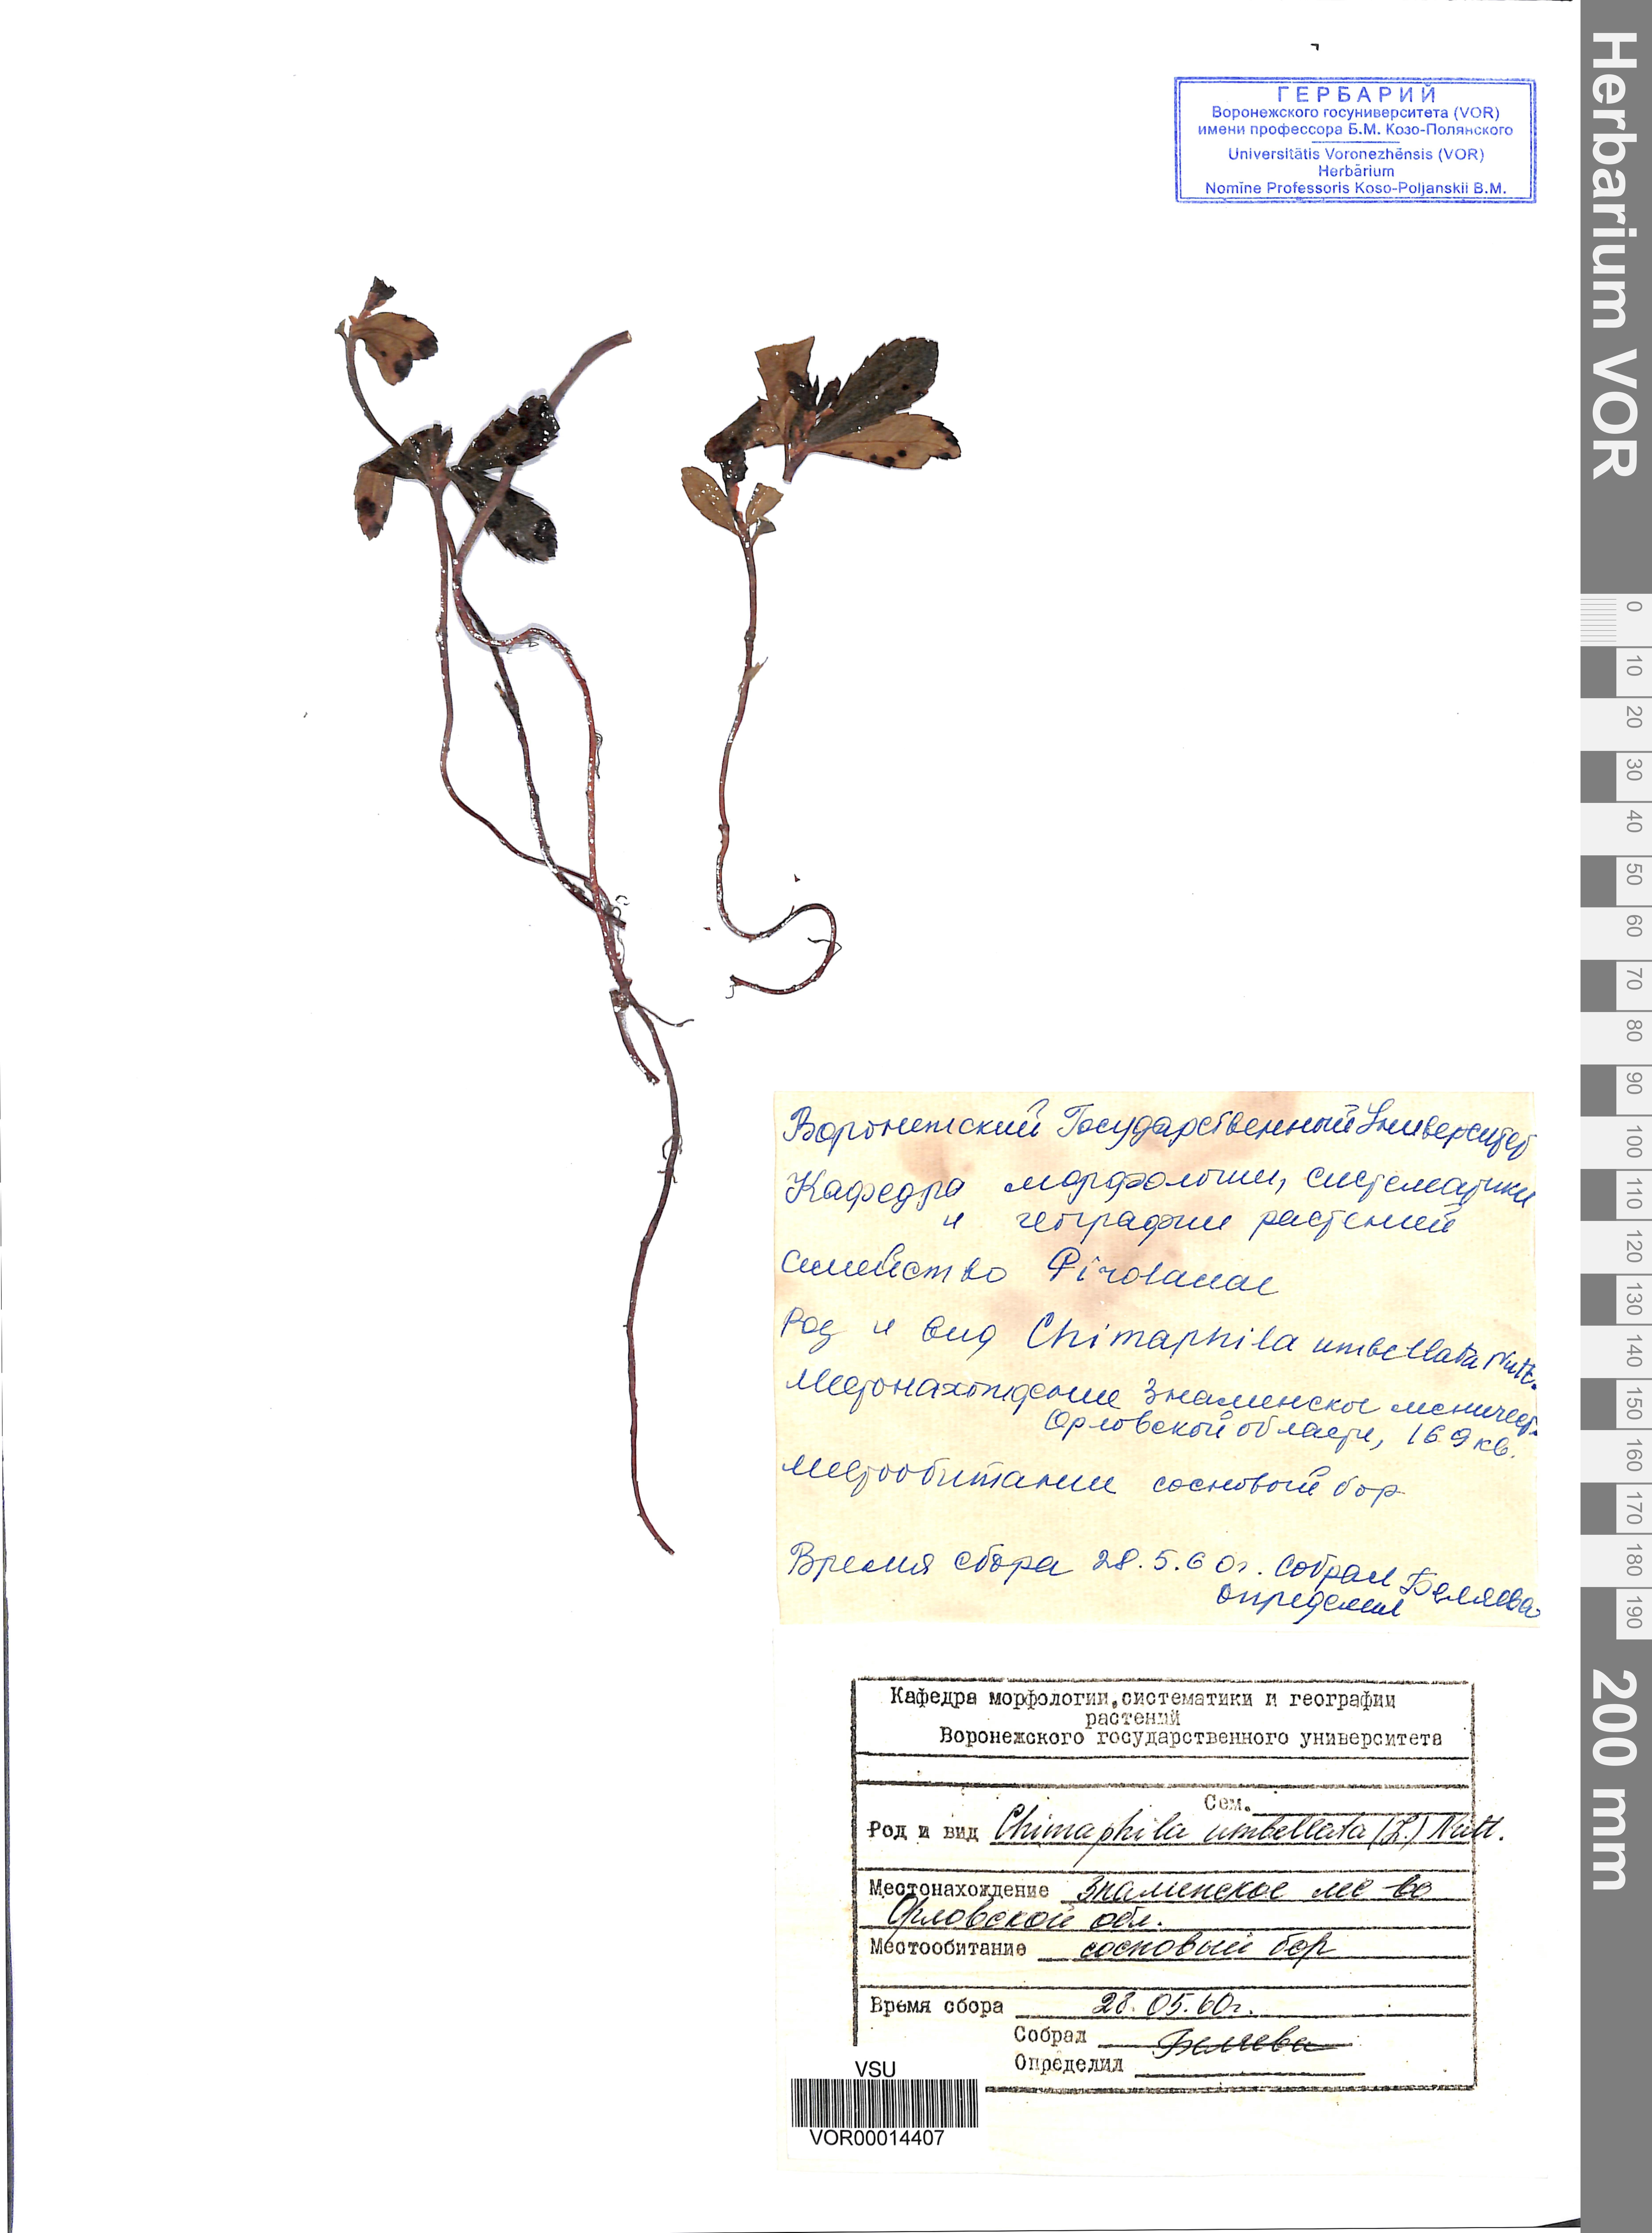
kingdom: Plantae
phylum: Tracheophyta
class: Magnoliopsida
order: Ericales
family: Ericaceae
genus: Chimaphila
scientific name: Chimaphila umbellata
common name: Pipsissewa
